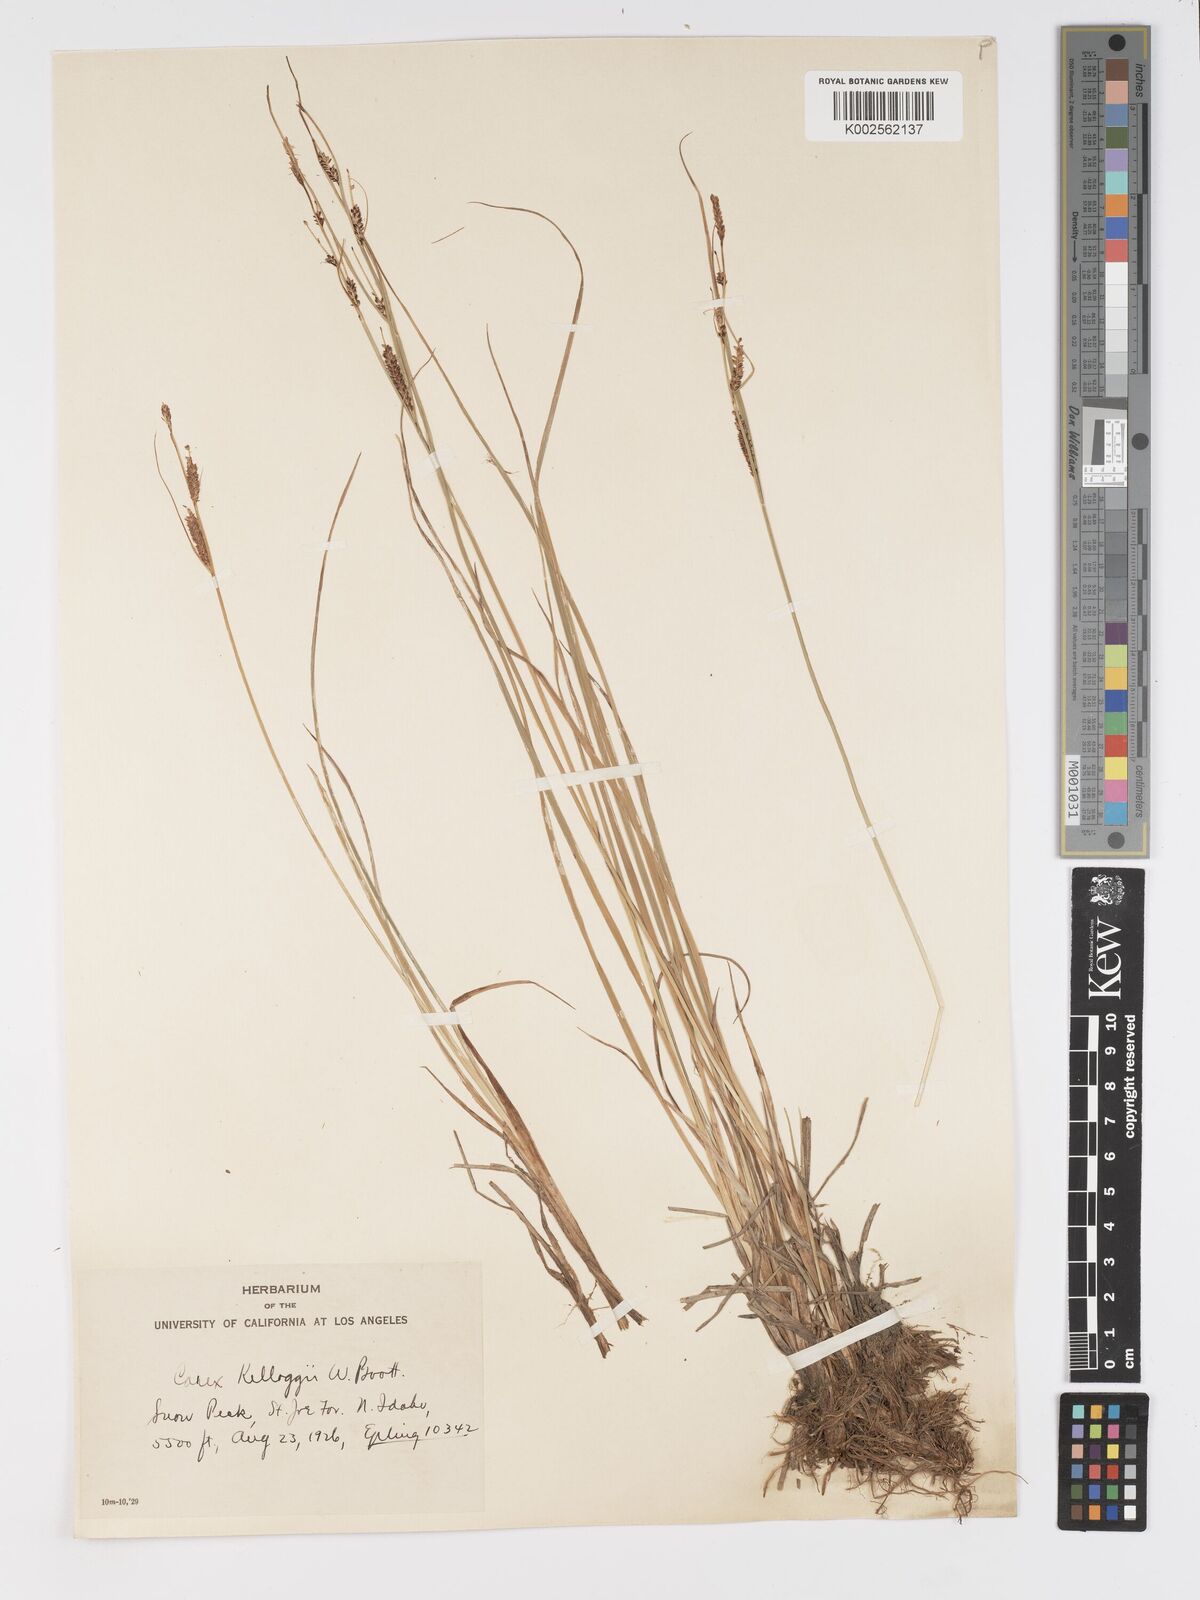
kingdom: Plantae
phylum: Tracheophyta
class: Liliopsida
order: Poales
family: Cyperaceae
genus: Carex
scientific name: Carex kelloggii
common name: Kellogg's sedge
